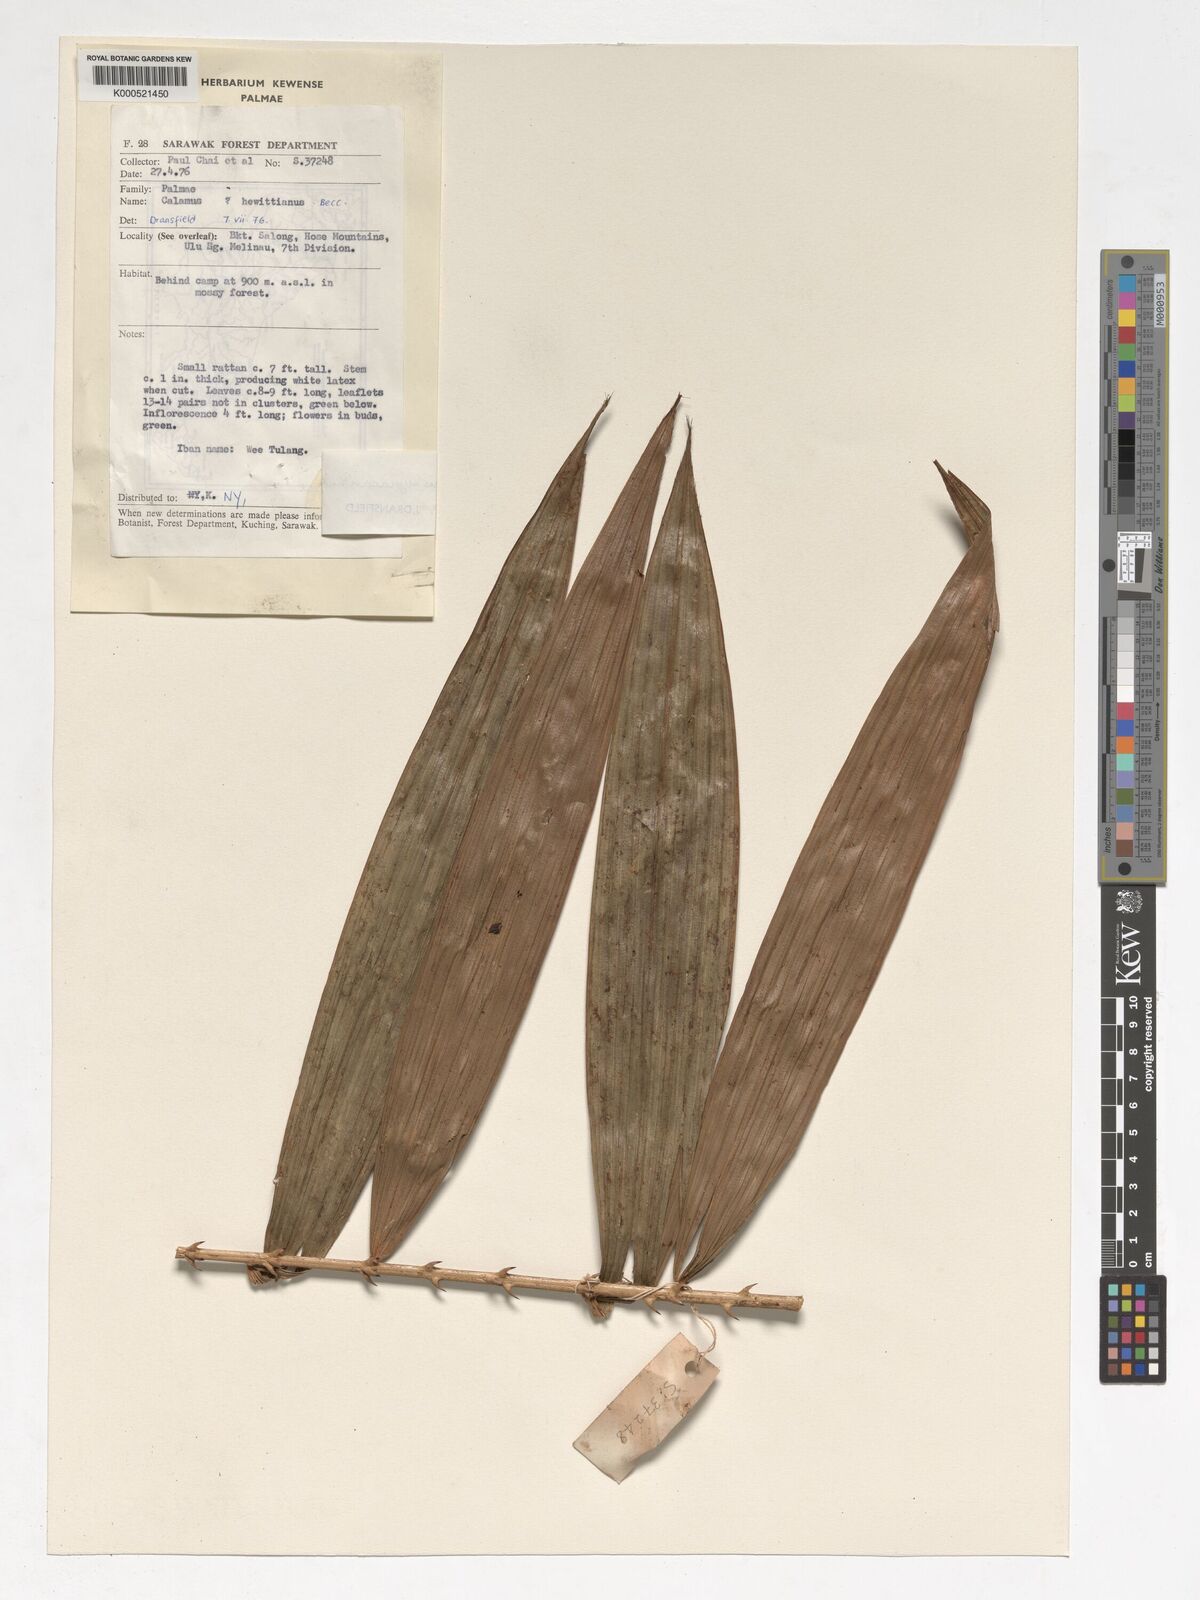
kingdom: Plantae
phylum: Tracheophyta
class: Liliopsida
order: Arecales
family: Arecaceae
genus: Calamus
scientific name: Calamus myriacanthus
